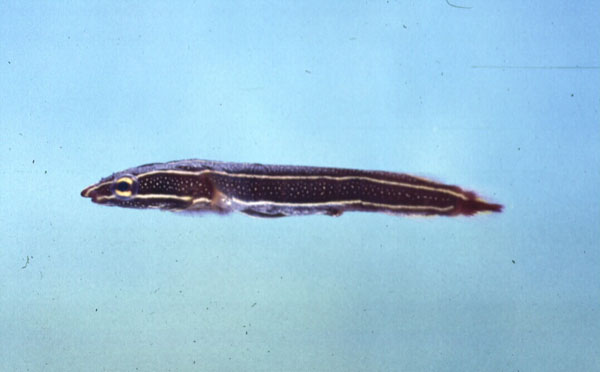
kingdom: Animalia
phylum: Chordata
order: Gobiesociformes
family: Gobiesocidae
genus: Lepadichthys
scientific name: Lepadichthys
